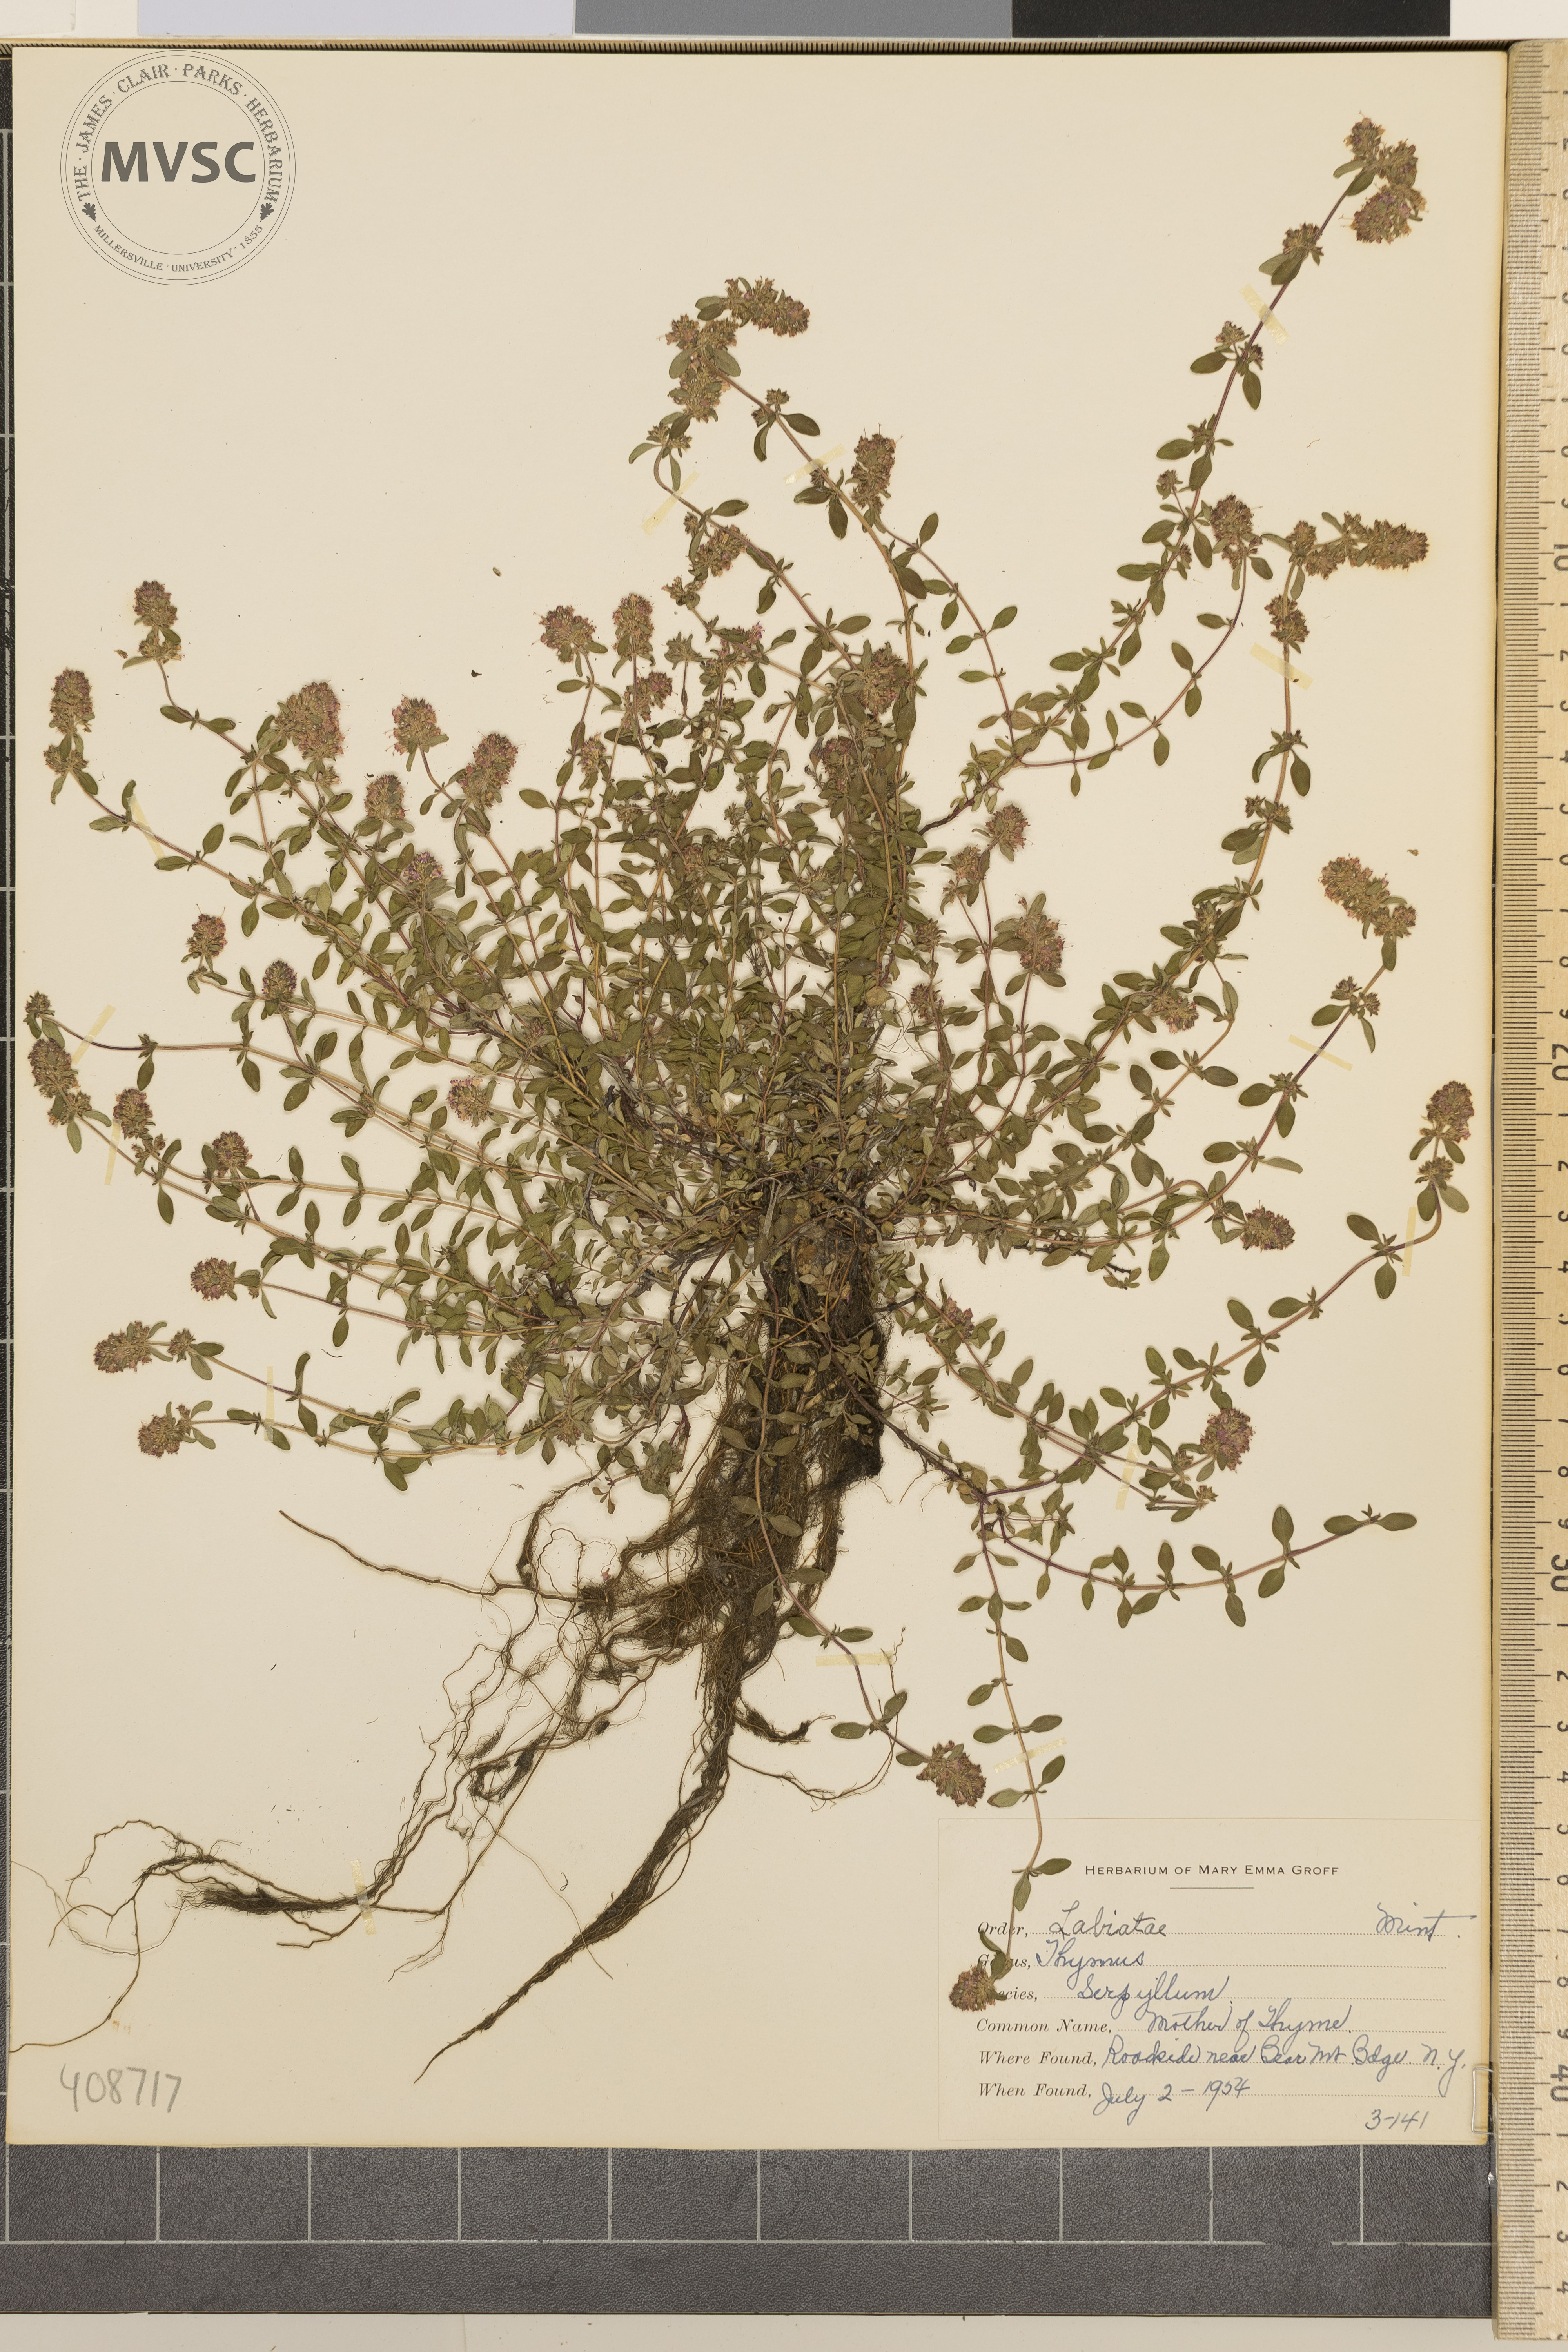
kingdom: Plantae
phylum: Tracheophyta
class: Magnoliopsida
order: Lamiales
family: Lamiaceae
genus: Thymus
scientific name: Thymus serpyllum
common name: Mother of Thyme
